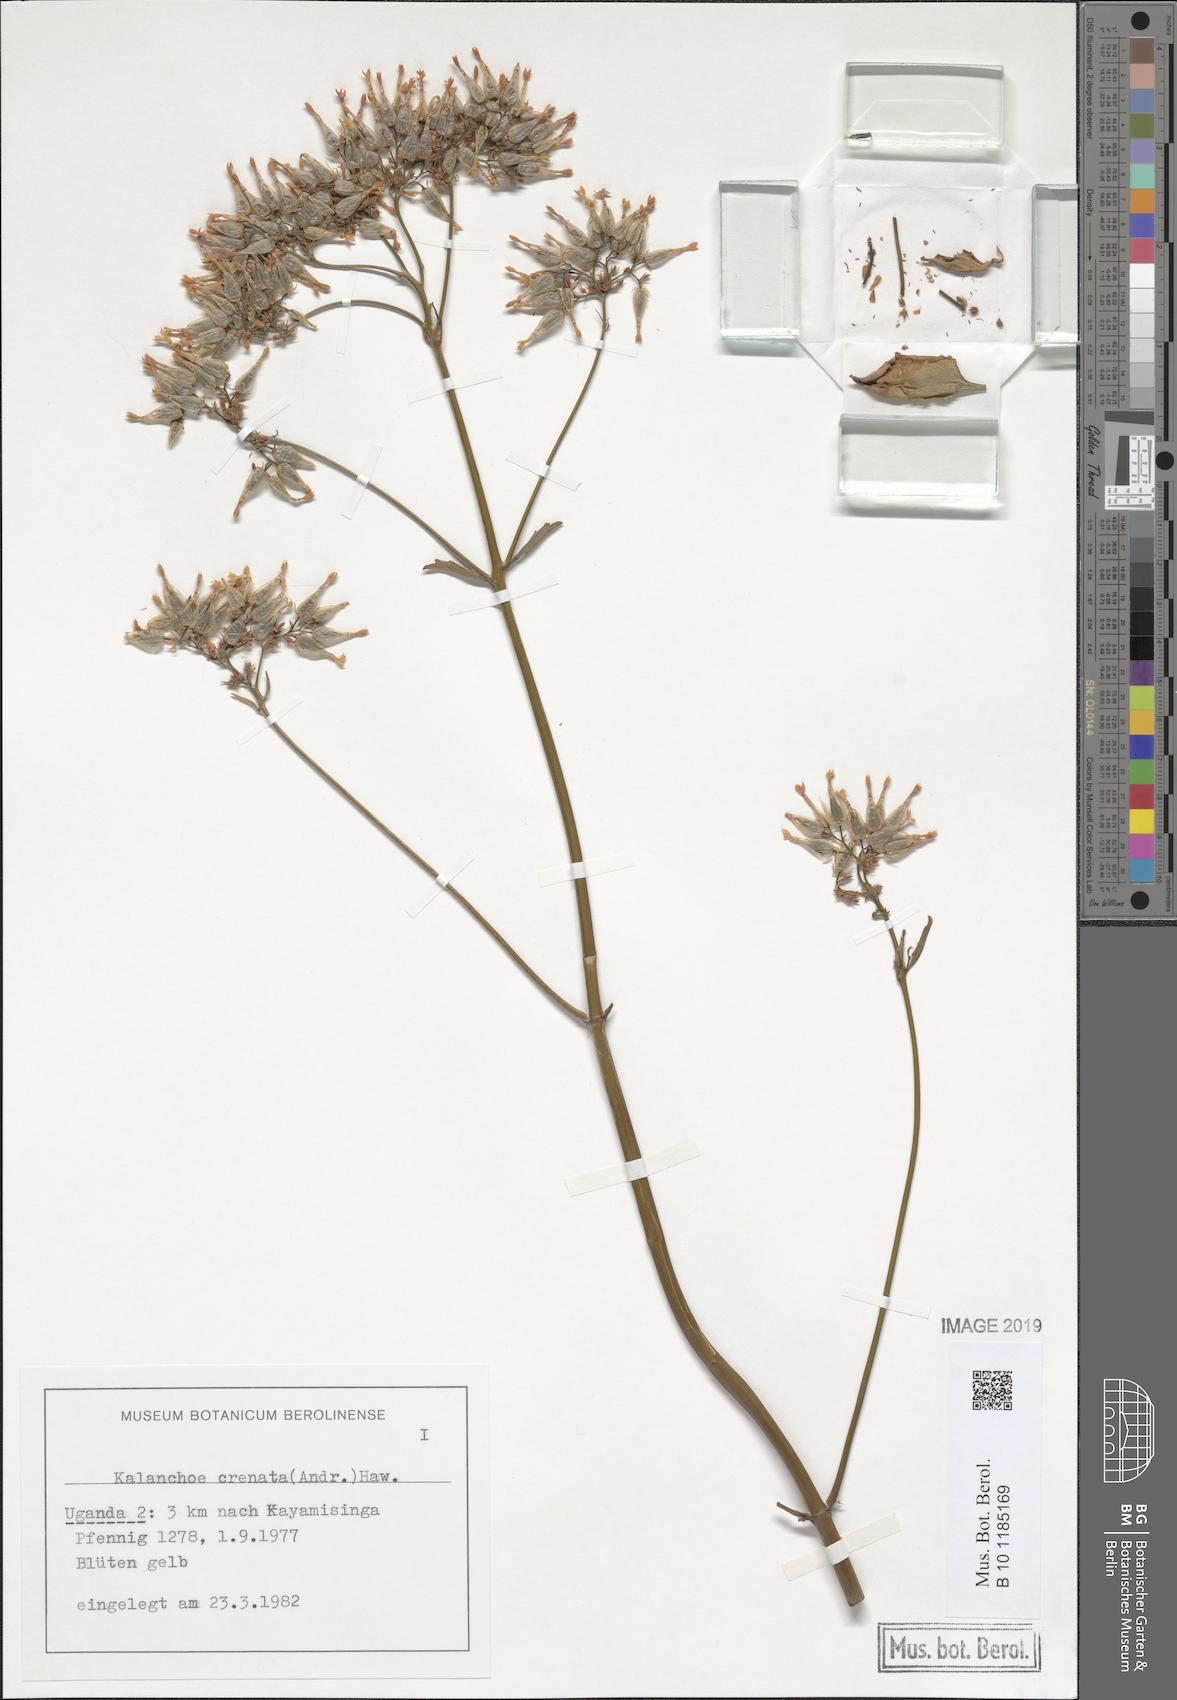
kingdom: Plantae
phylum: Tracheophyta
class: Magnoliopsida
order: Saxifragales
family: Crassulaceae
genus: Kalanchoe
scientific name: Kalanchoe crenata
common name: Neverdie
